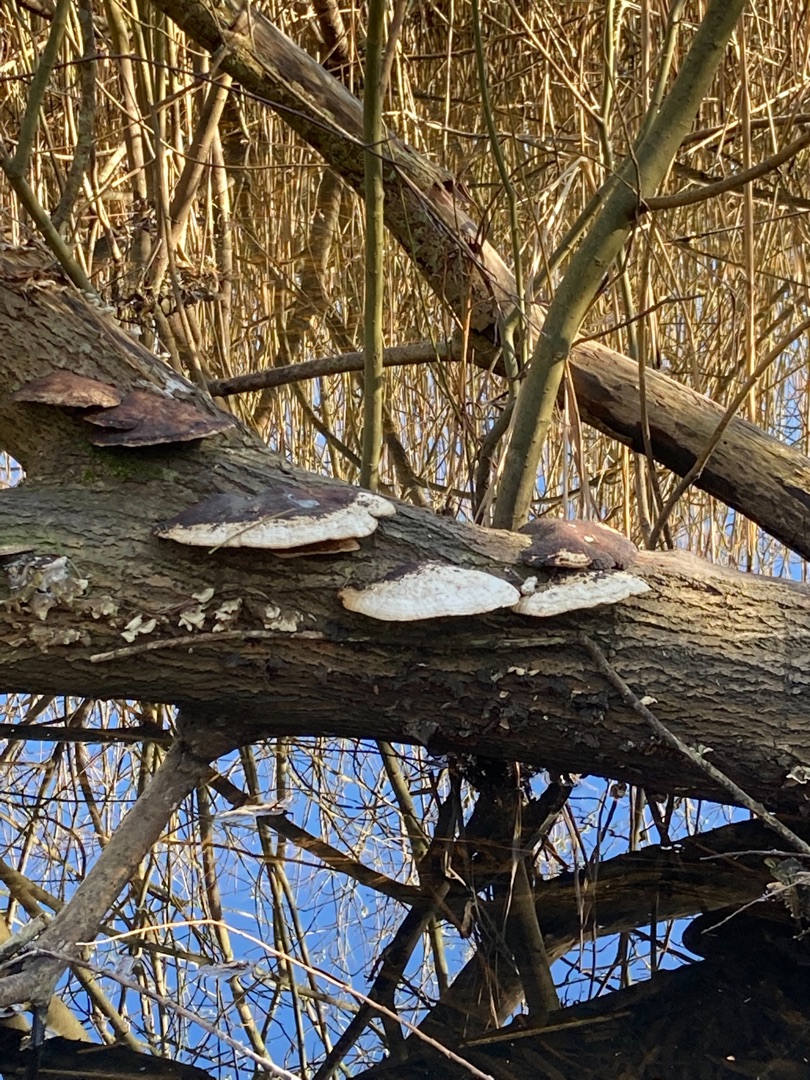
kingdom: Fungi
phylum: Basidiomycota
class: Agaricomycetes
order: Polyporales
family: Polyporaceae
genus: Daedaleopsis
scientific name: Daedaleopsis confragosa
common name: Rødmende læderporesvamp
